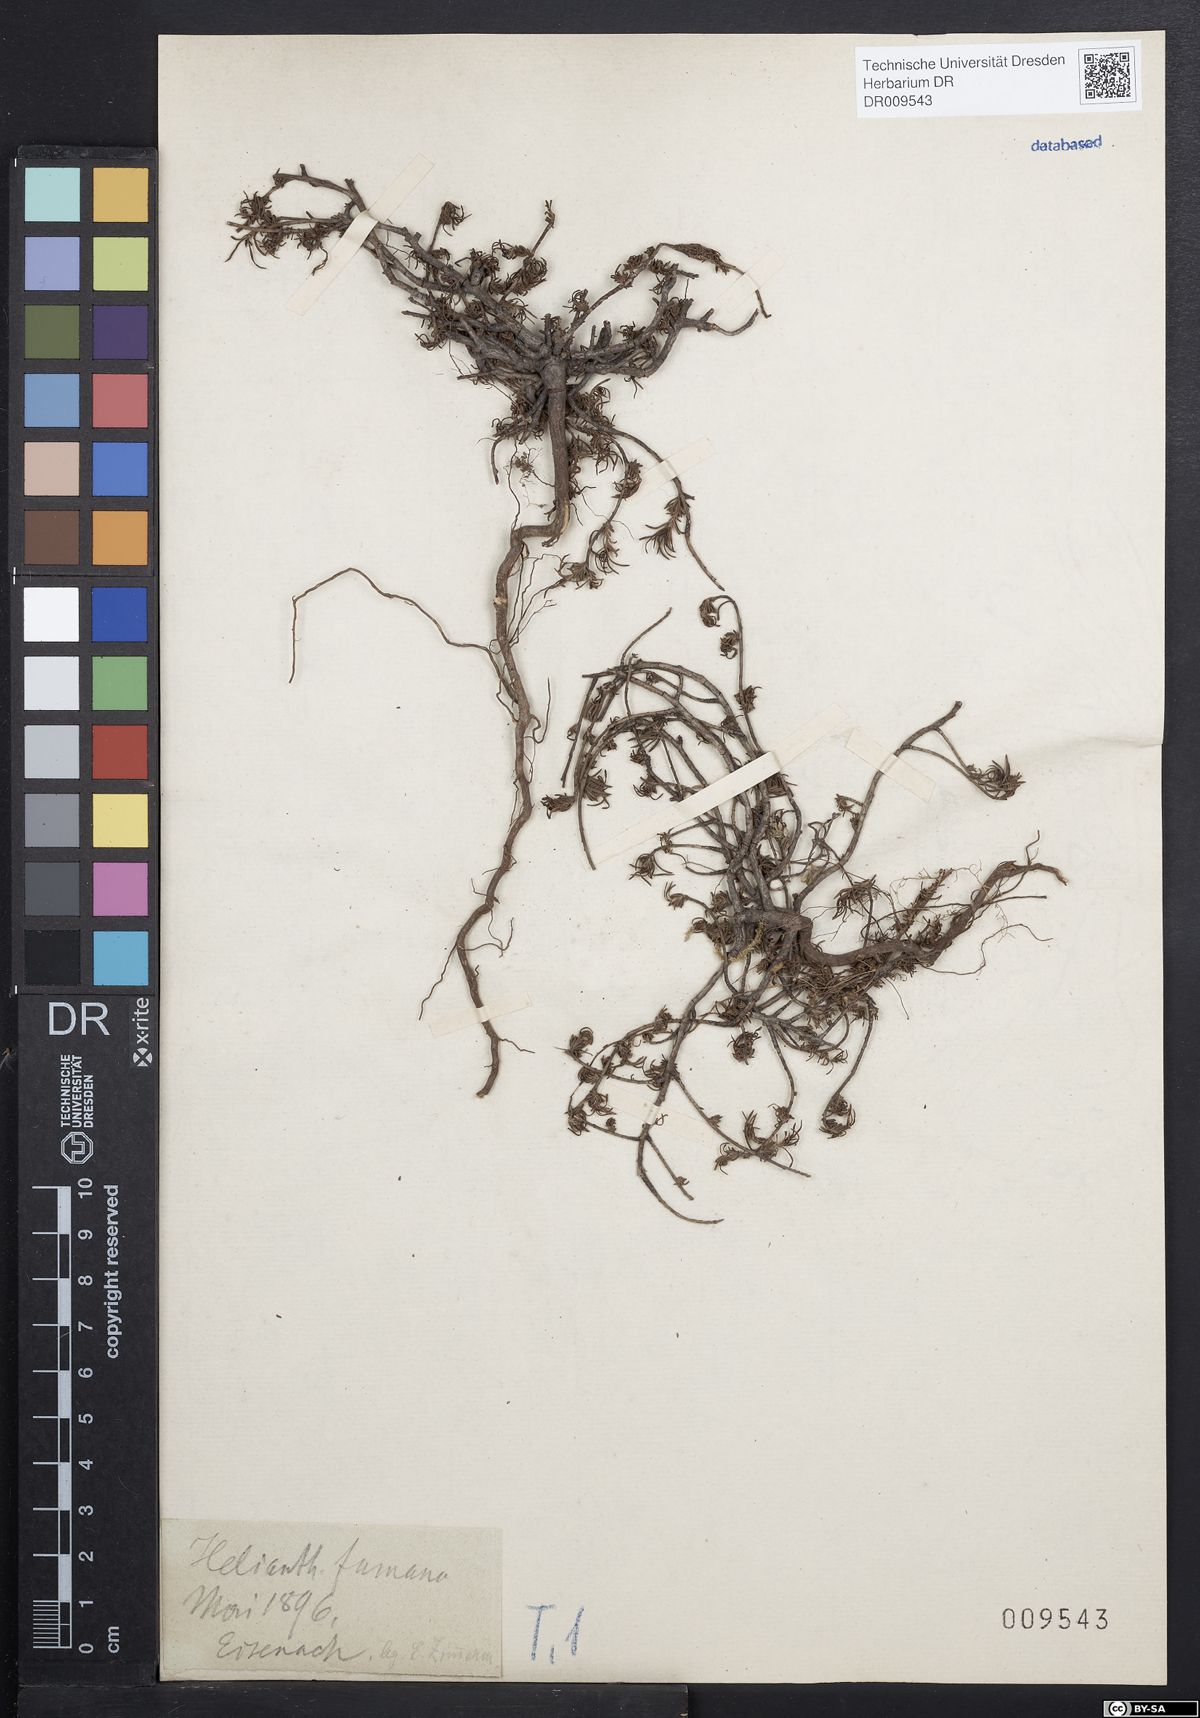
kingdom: Plantae
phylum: Tracheophyta
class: Magnoliopsida
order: Malvales
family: Cistaceae
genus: Fumana
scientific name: Fumana procumbens
